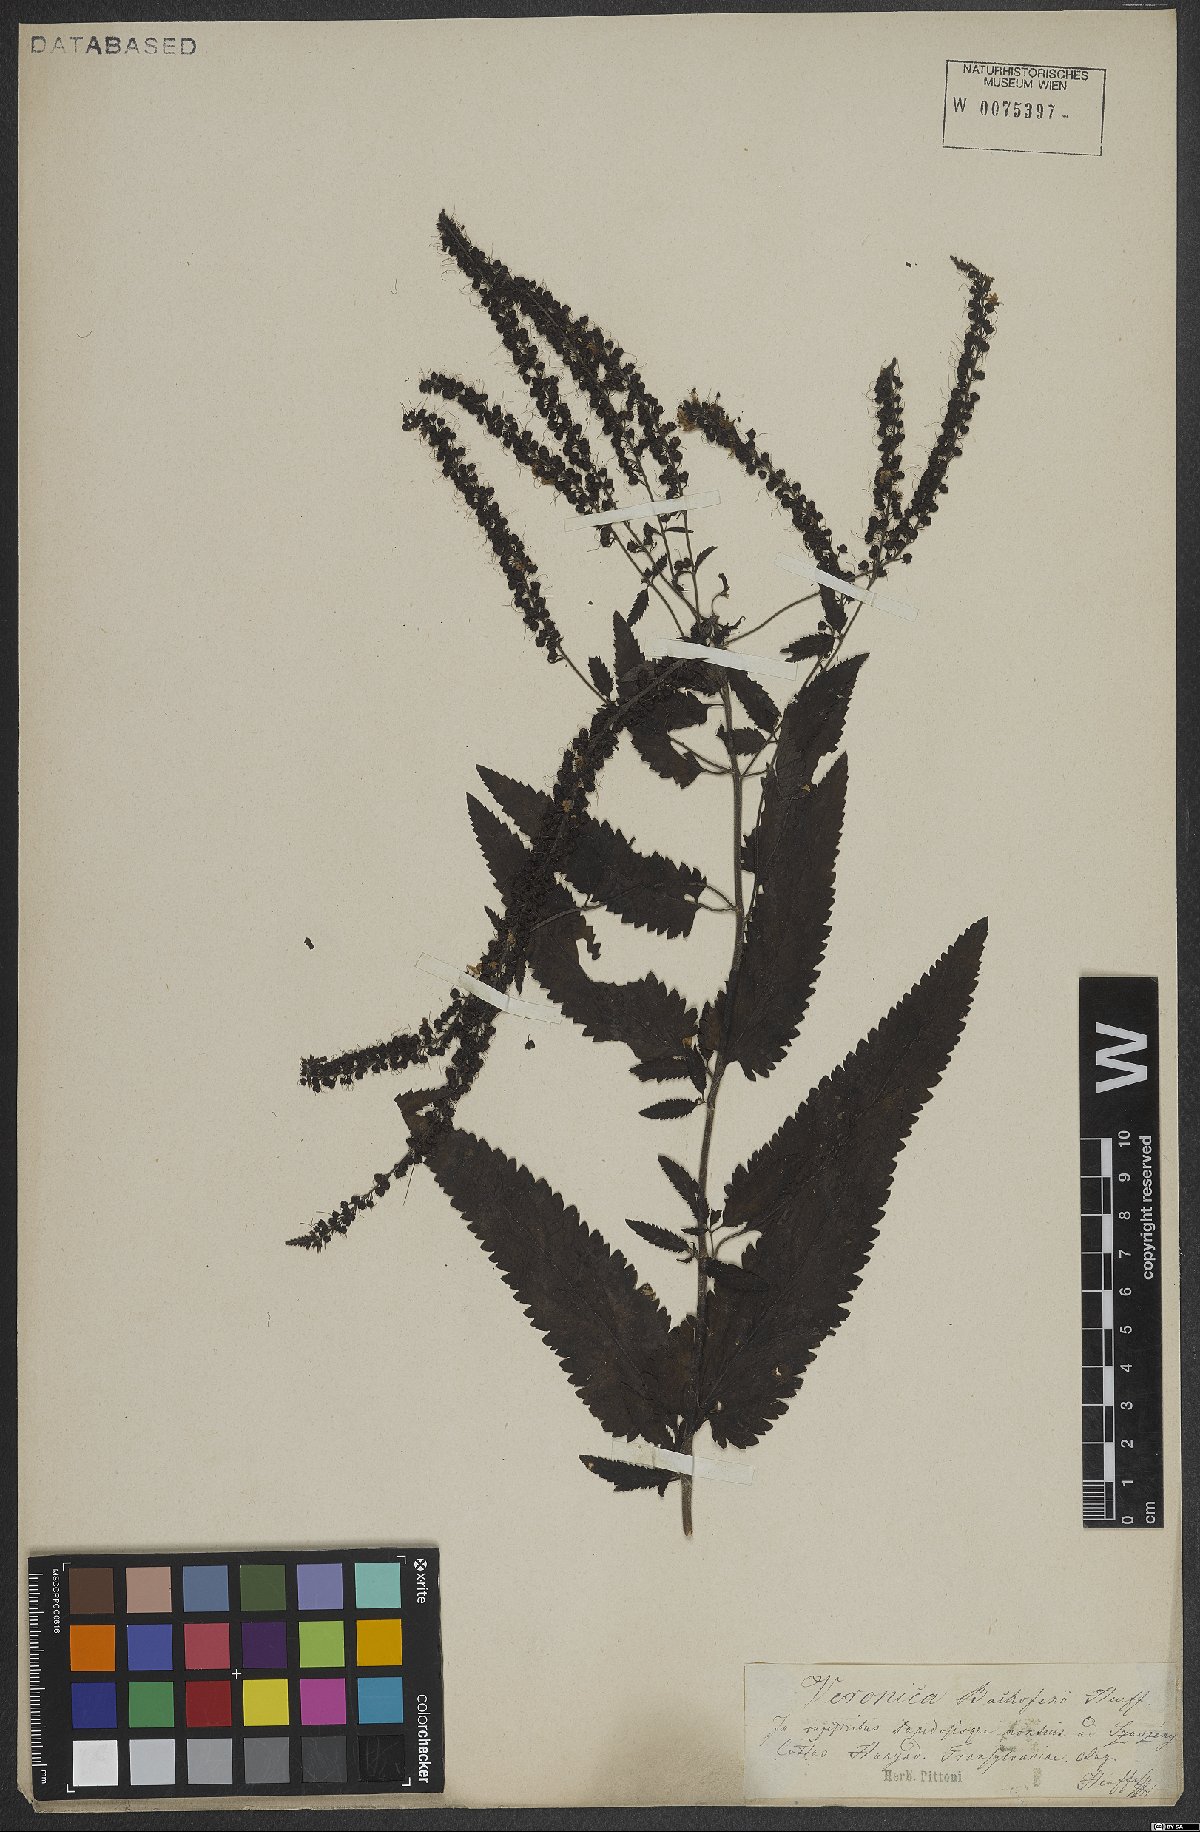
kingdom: Plantae
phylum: Tracheophyta
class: Magnoliopsida
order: Lamiales
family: Plantaginaceae
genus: Veronica
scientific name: Veronica bachofenii
